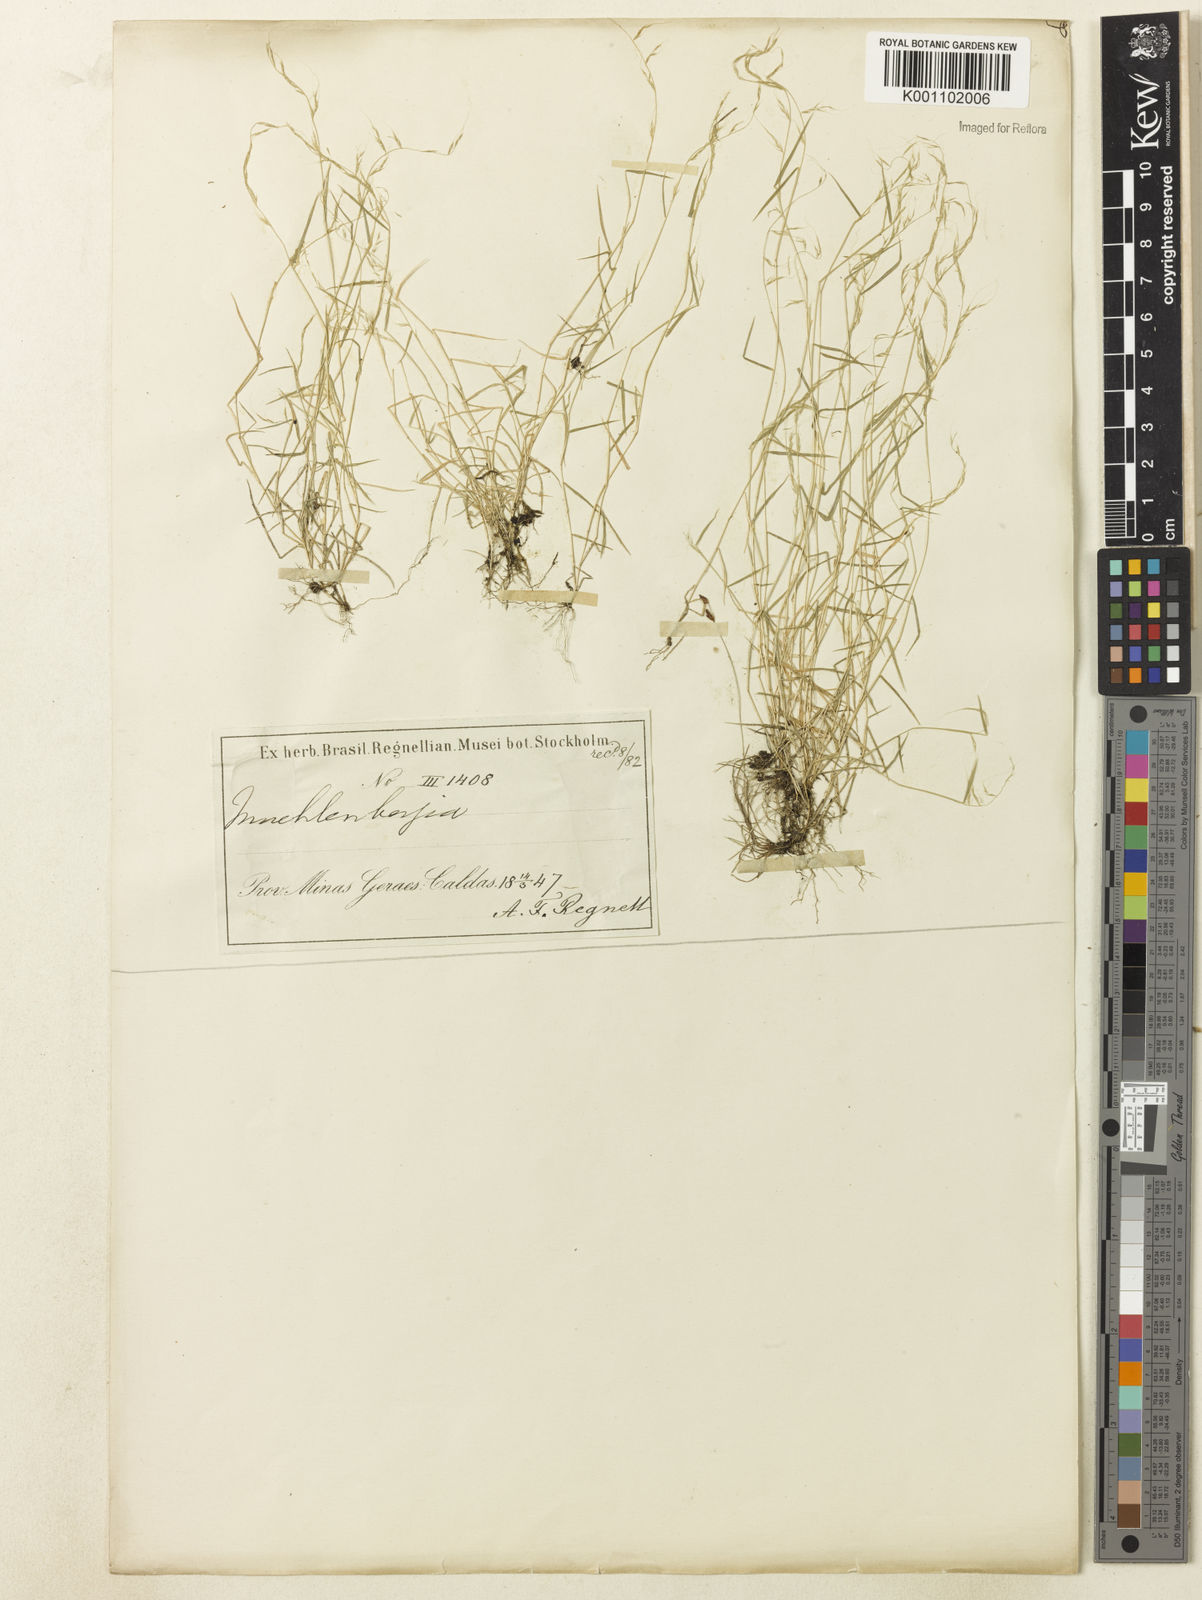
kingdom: Plantae
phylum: Tracheophyta
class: Liliopsida
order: Poales
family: Poaceae
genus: Muhlenbergia
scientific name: Muhlenbergia
